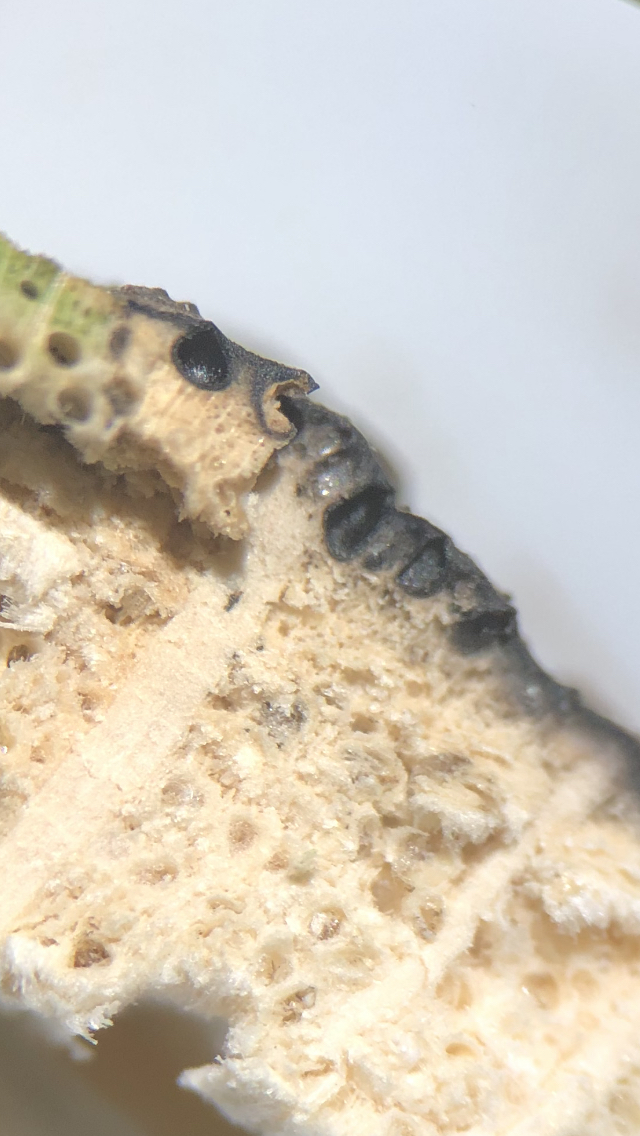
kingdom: Fungi
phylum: Ascomycota
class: Sordariomycetes
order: Xylariales
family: Xylariaceae
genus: Nemania
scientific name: Nemania
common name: kuldyne
